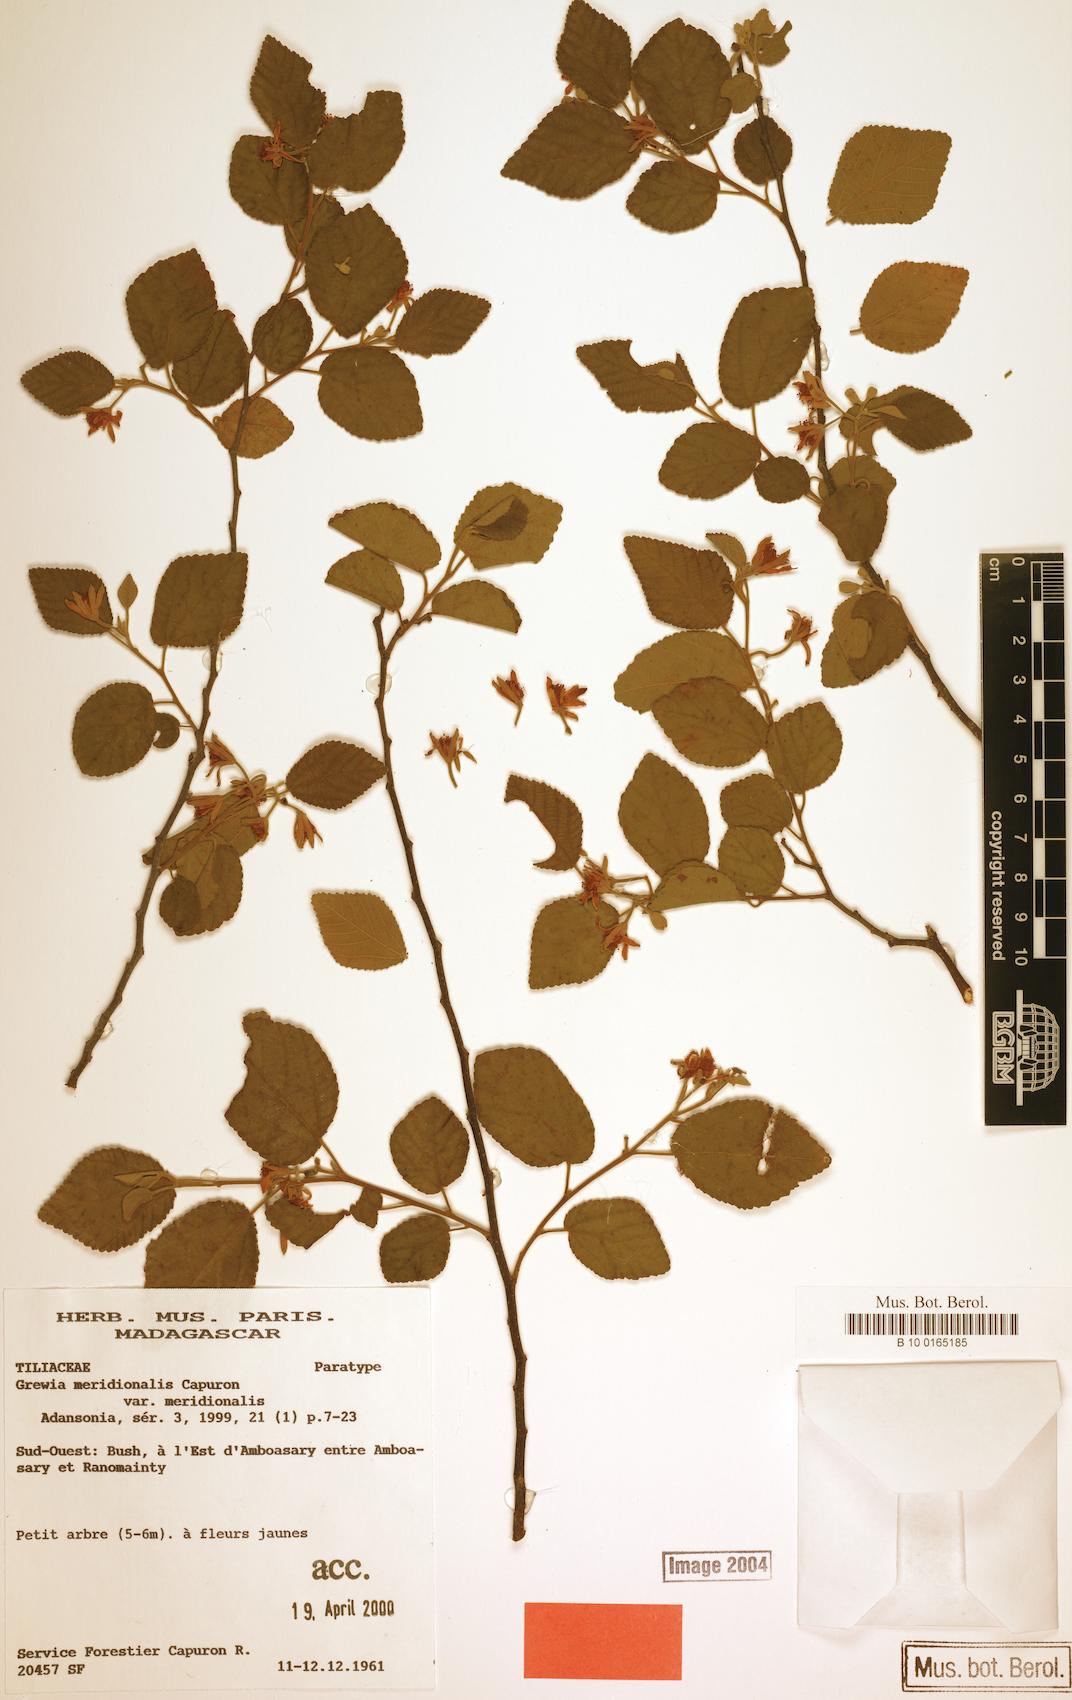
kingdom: Plantae
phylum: Tracheophyta
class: Magnoliopsida
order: Malvales
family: Malvaceae
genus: Grewia
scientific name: Grewia meridionalis
